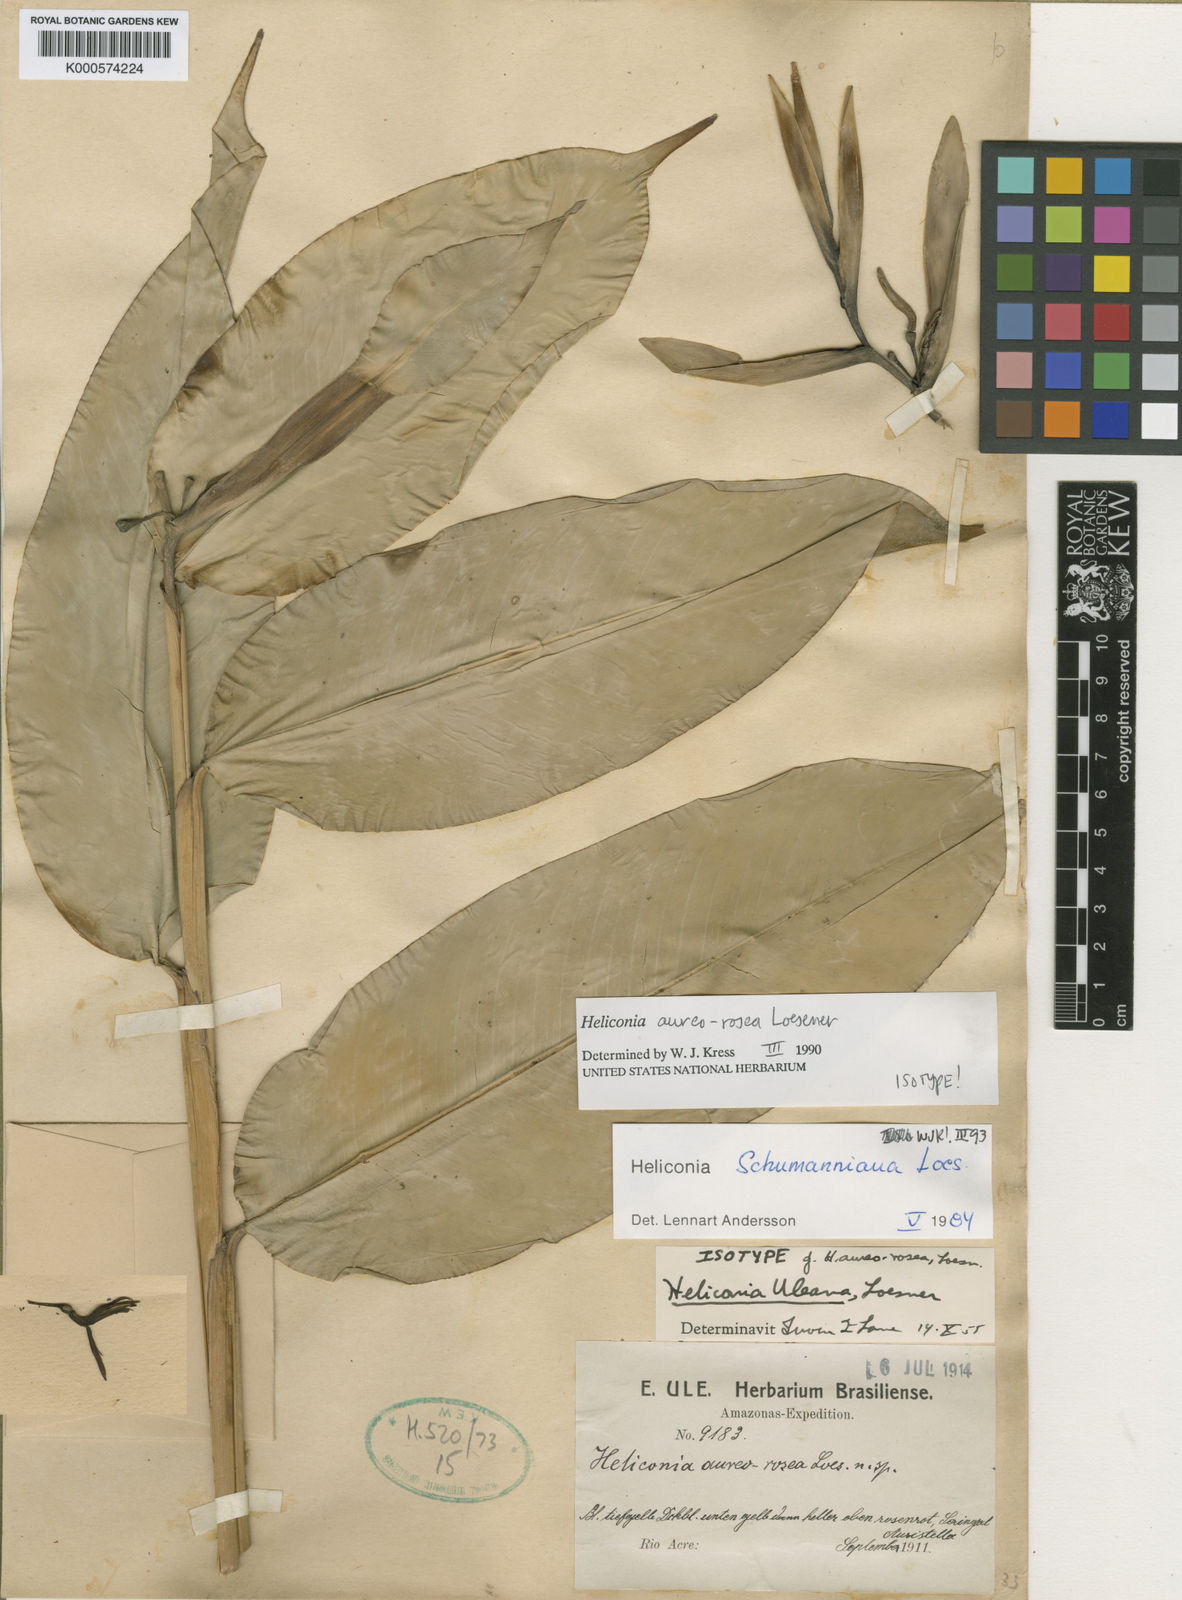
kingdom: Plantae
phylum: Tracheophyta
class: Liliopsida
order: Zingiberales
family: Heliconiaceae
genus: Heliconia
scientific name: Heliconia schumanniana
